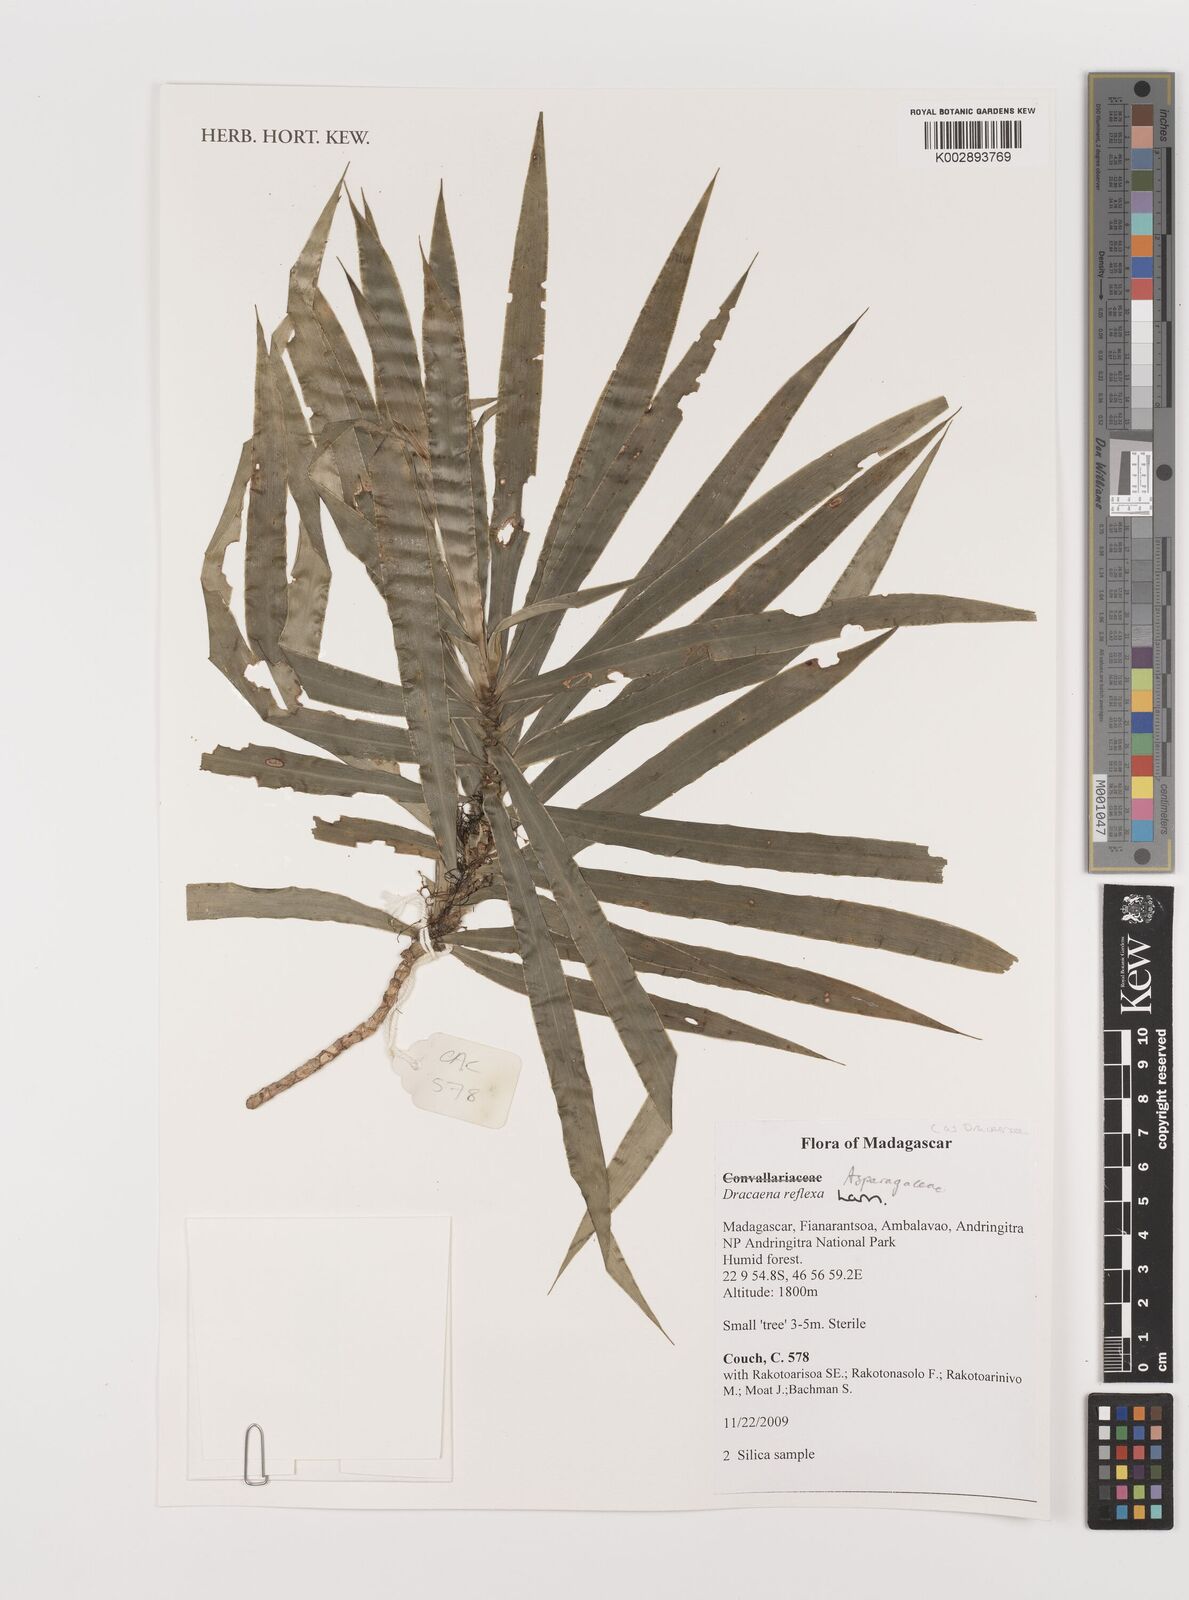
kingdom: Plantae
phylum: Tracheophyta
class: Liliopsida
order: Asparagales
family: Asparagaceae
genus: Dracaena
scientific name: Dracaena reflexa
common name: Song-of-india
